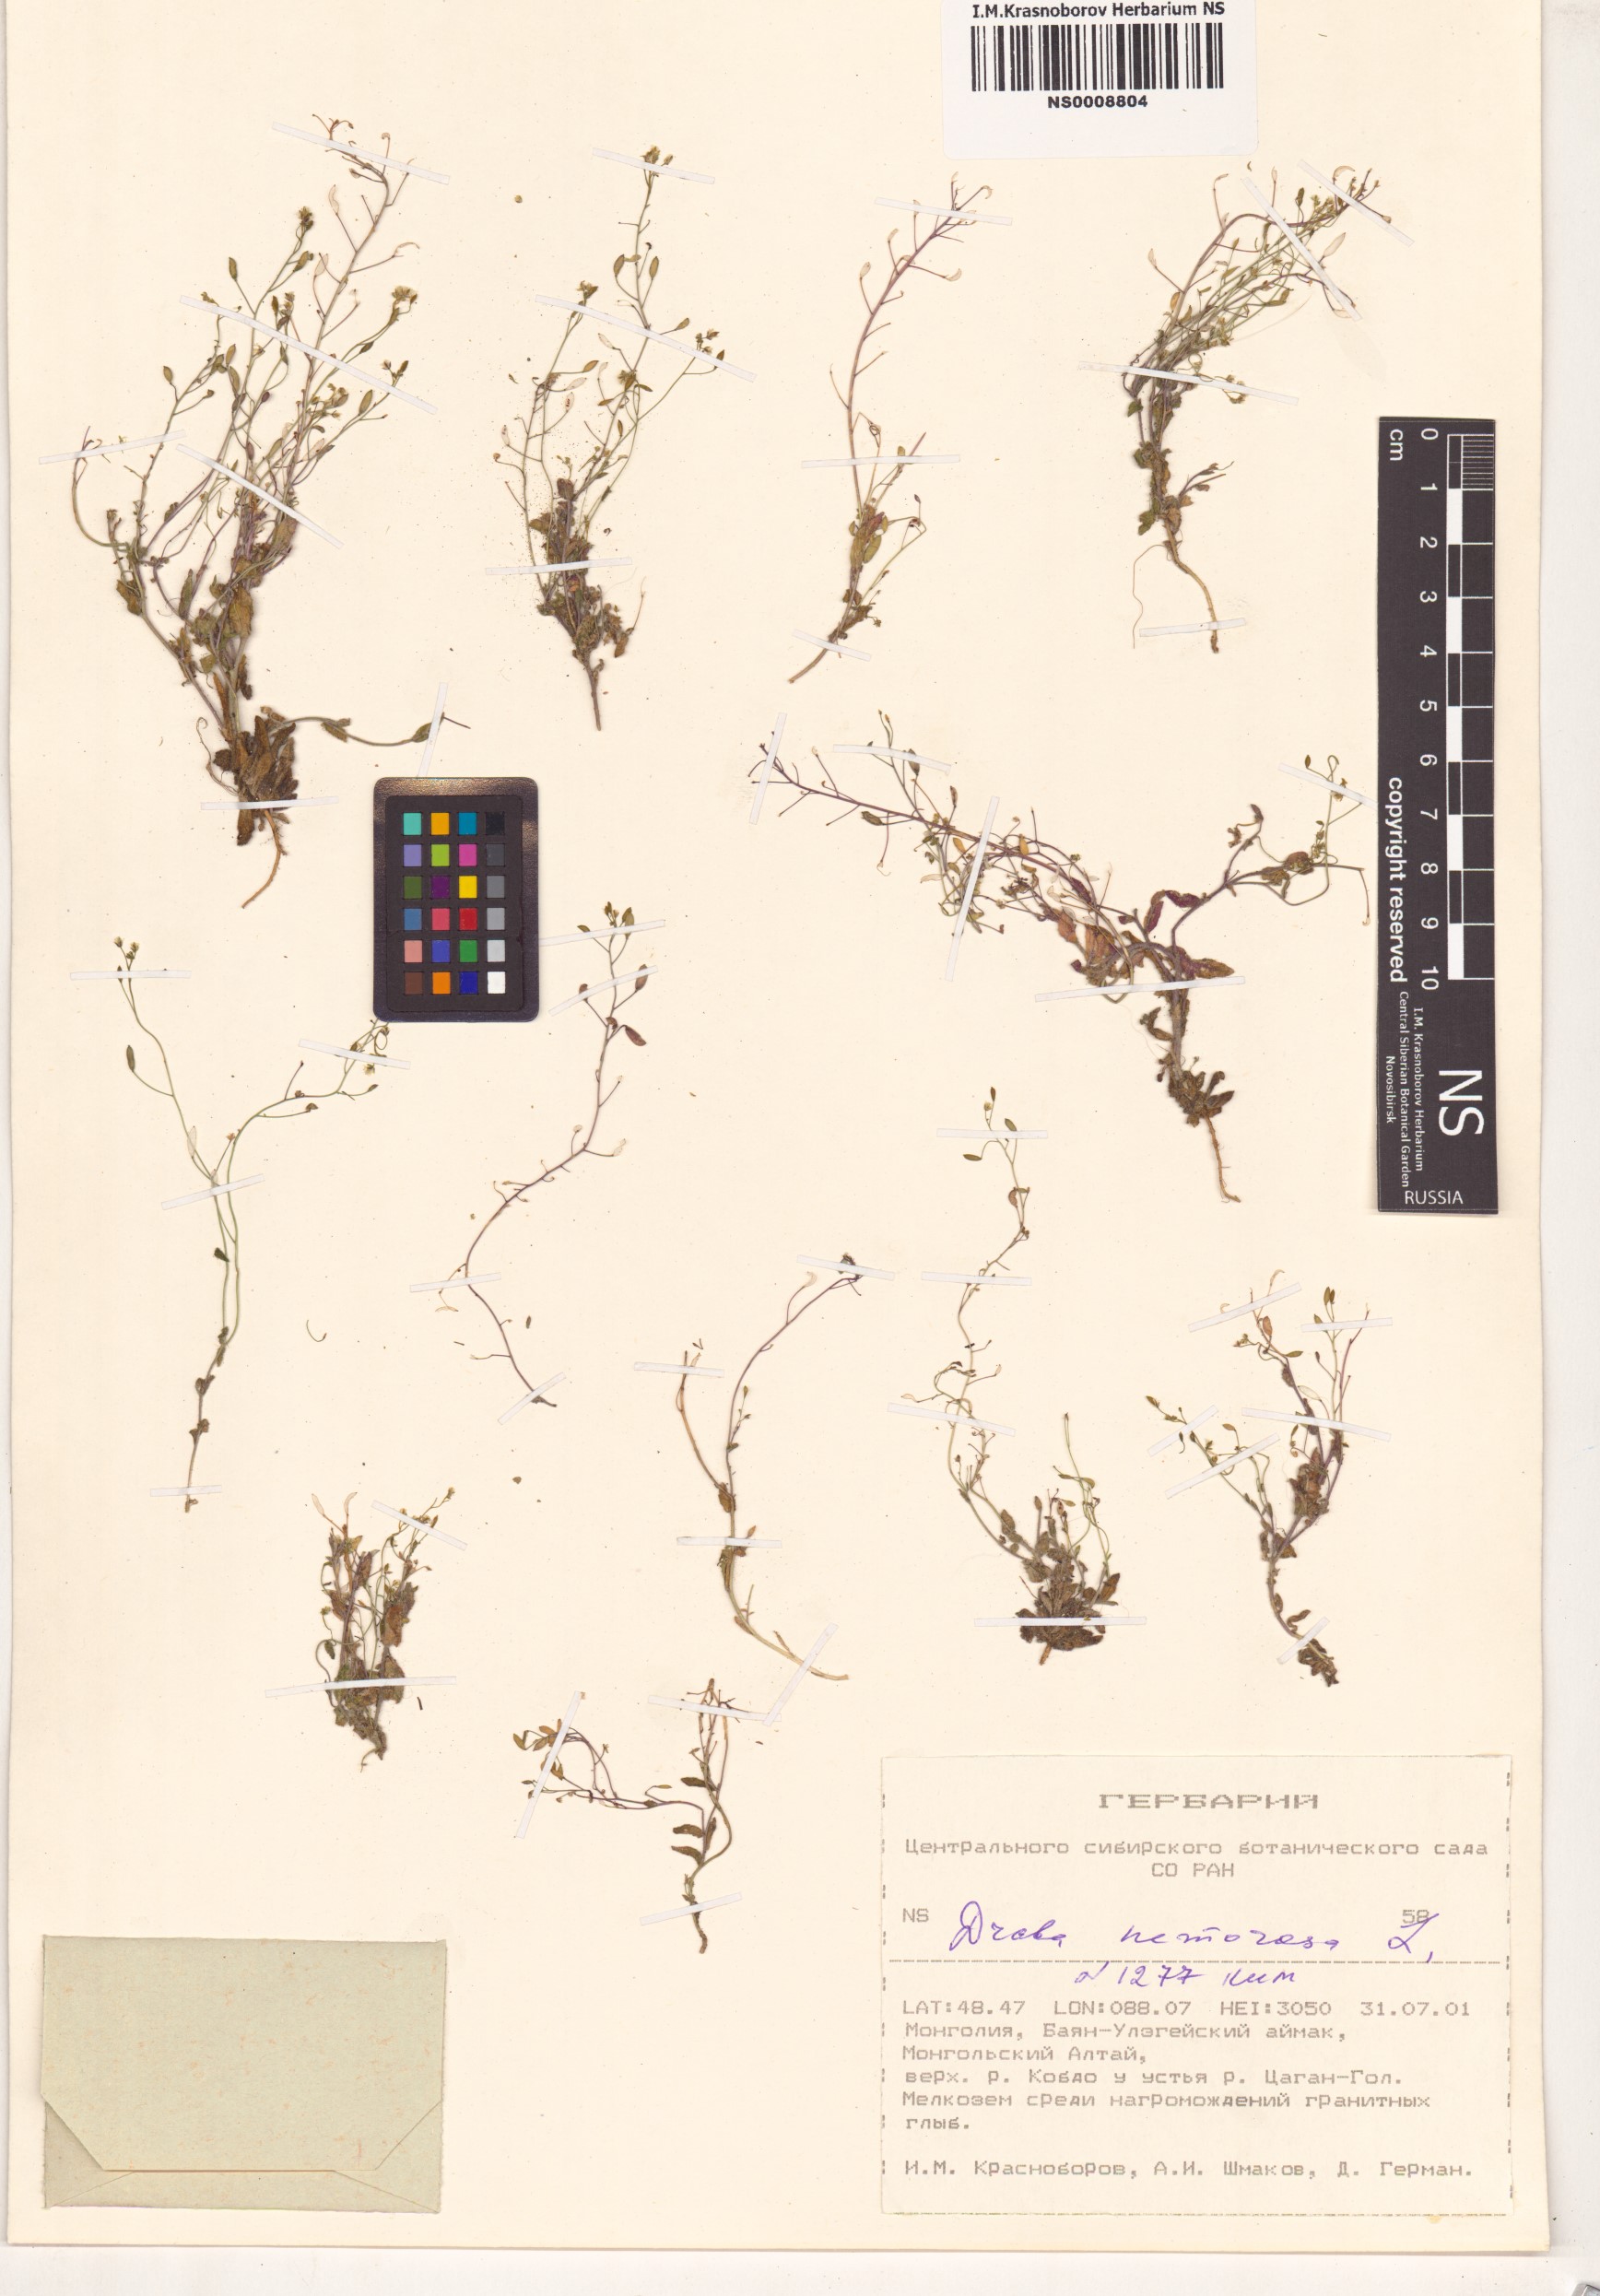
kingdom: Plantae
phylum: Tracheophyta
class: Magnoliopsida
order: Brassicales
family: Brassicaceae
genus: Draba
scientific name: Draba nemorosa
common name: Wood whitlow-grass
